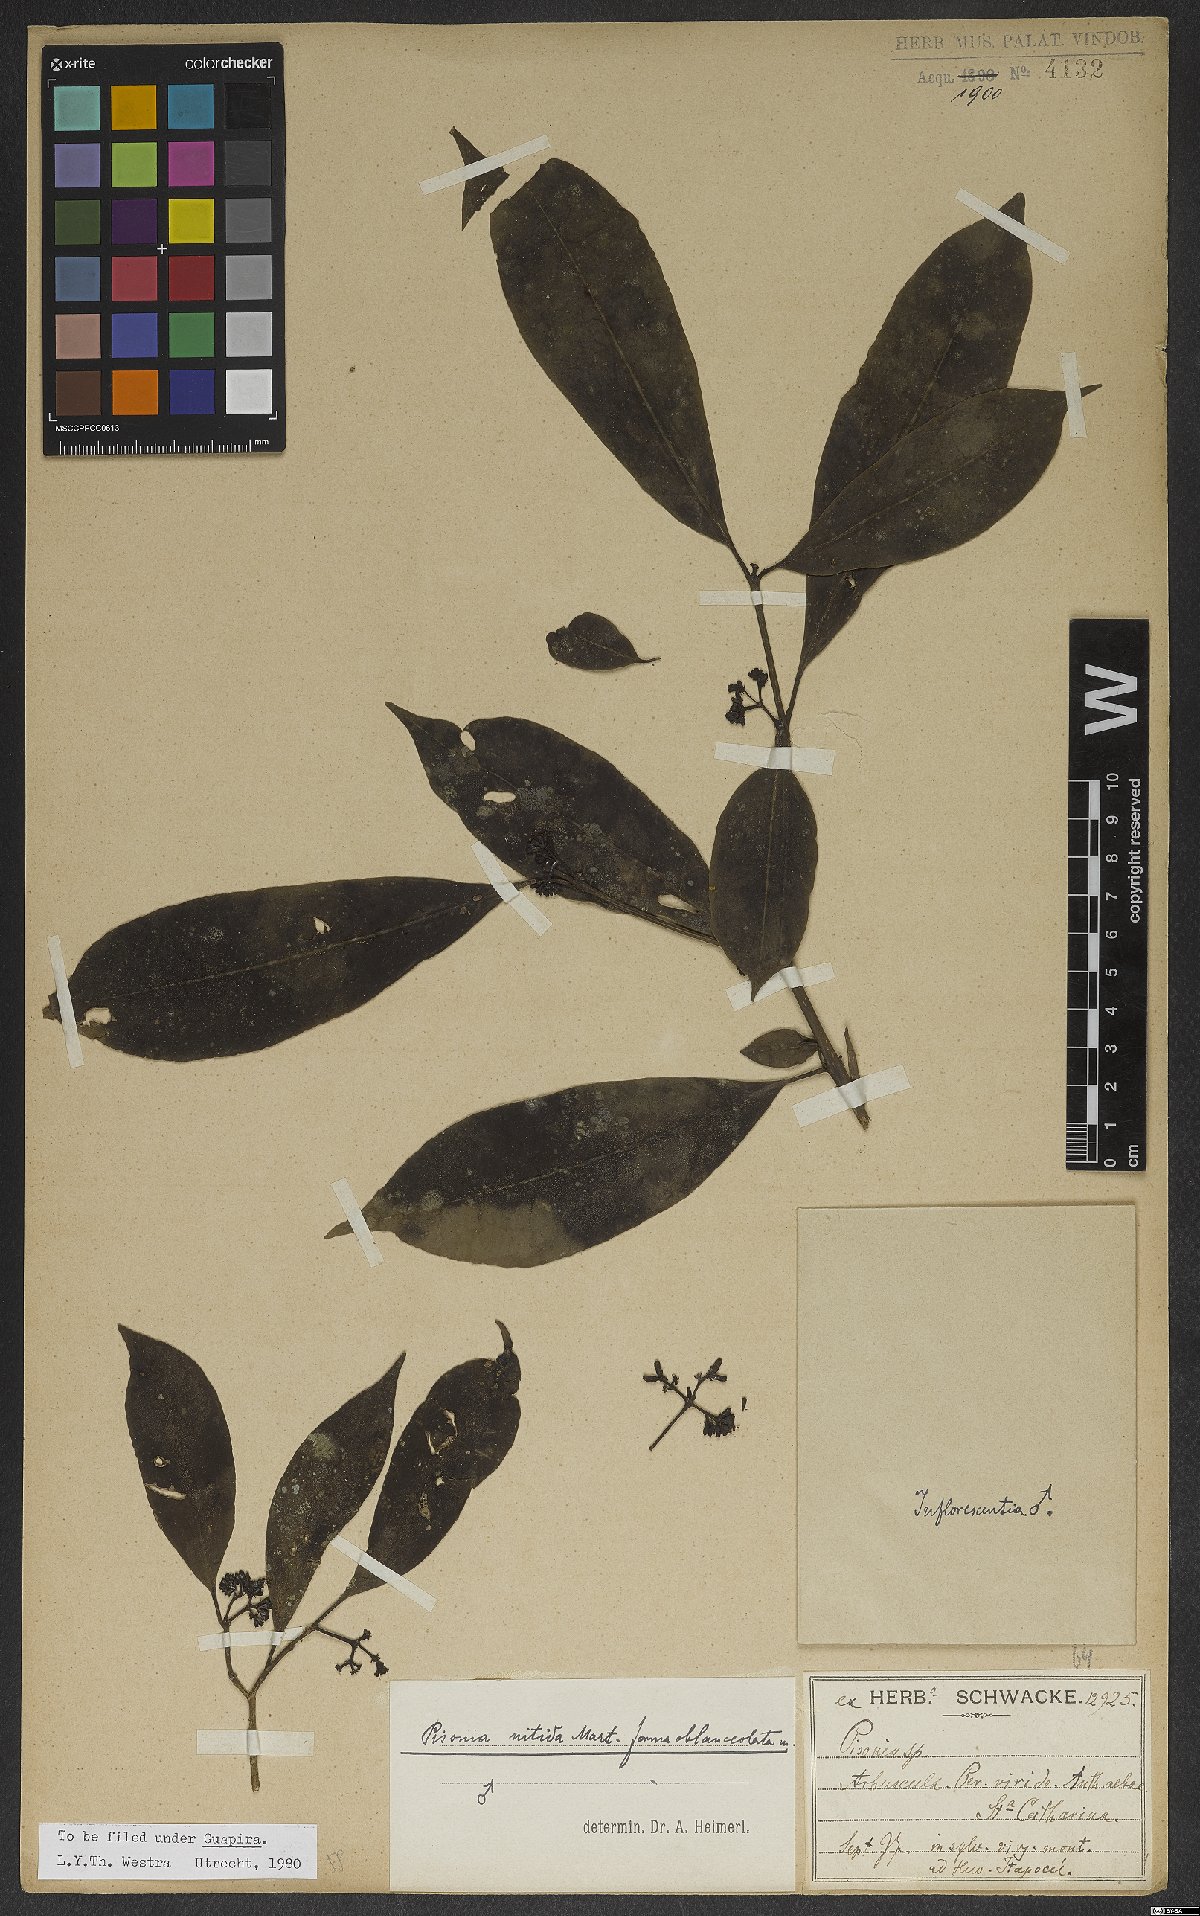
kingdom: Plantae
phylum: Tracheophyta
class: Magnoliopsida
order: Caryophyllales
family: Nyctaginaceae
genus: Guapira
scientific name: Guapira nitida
